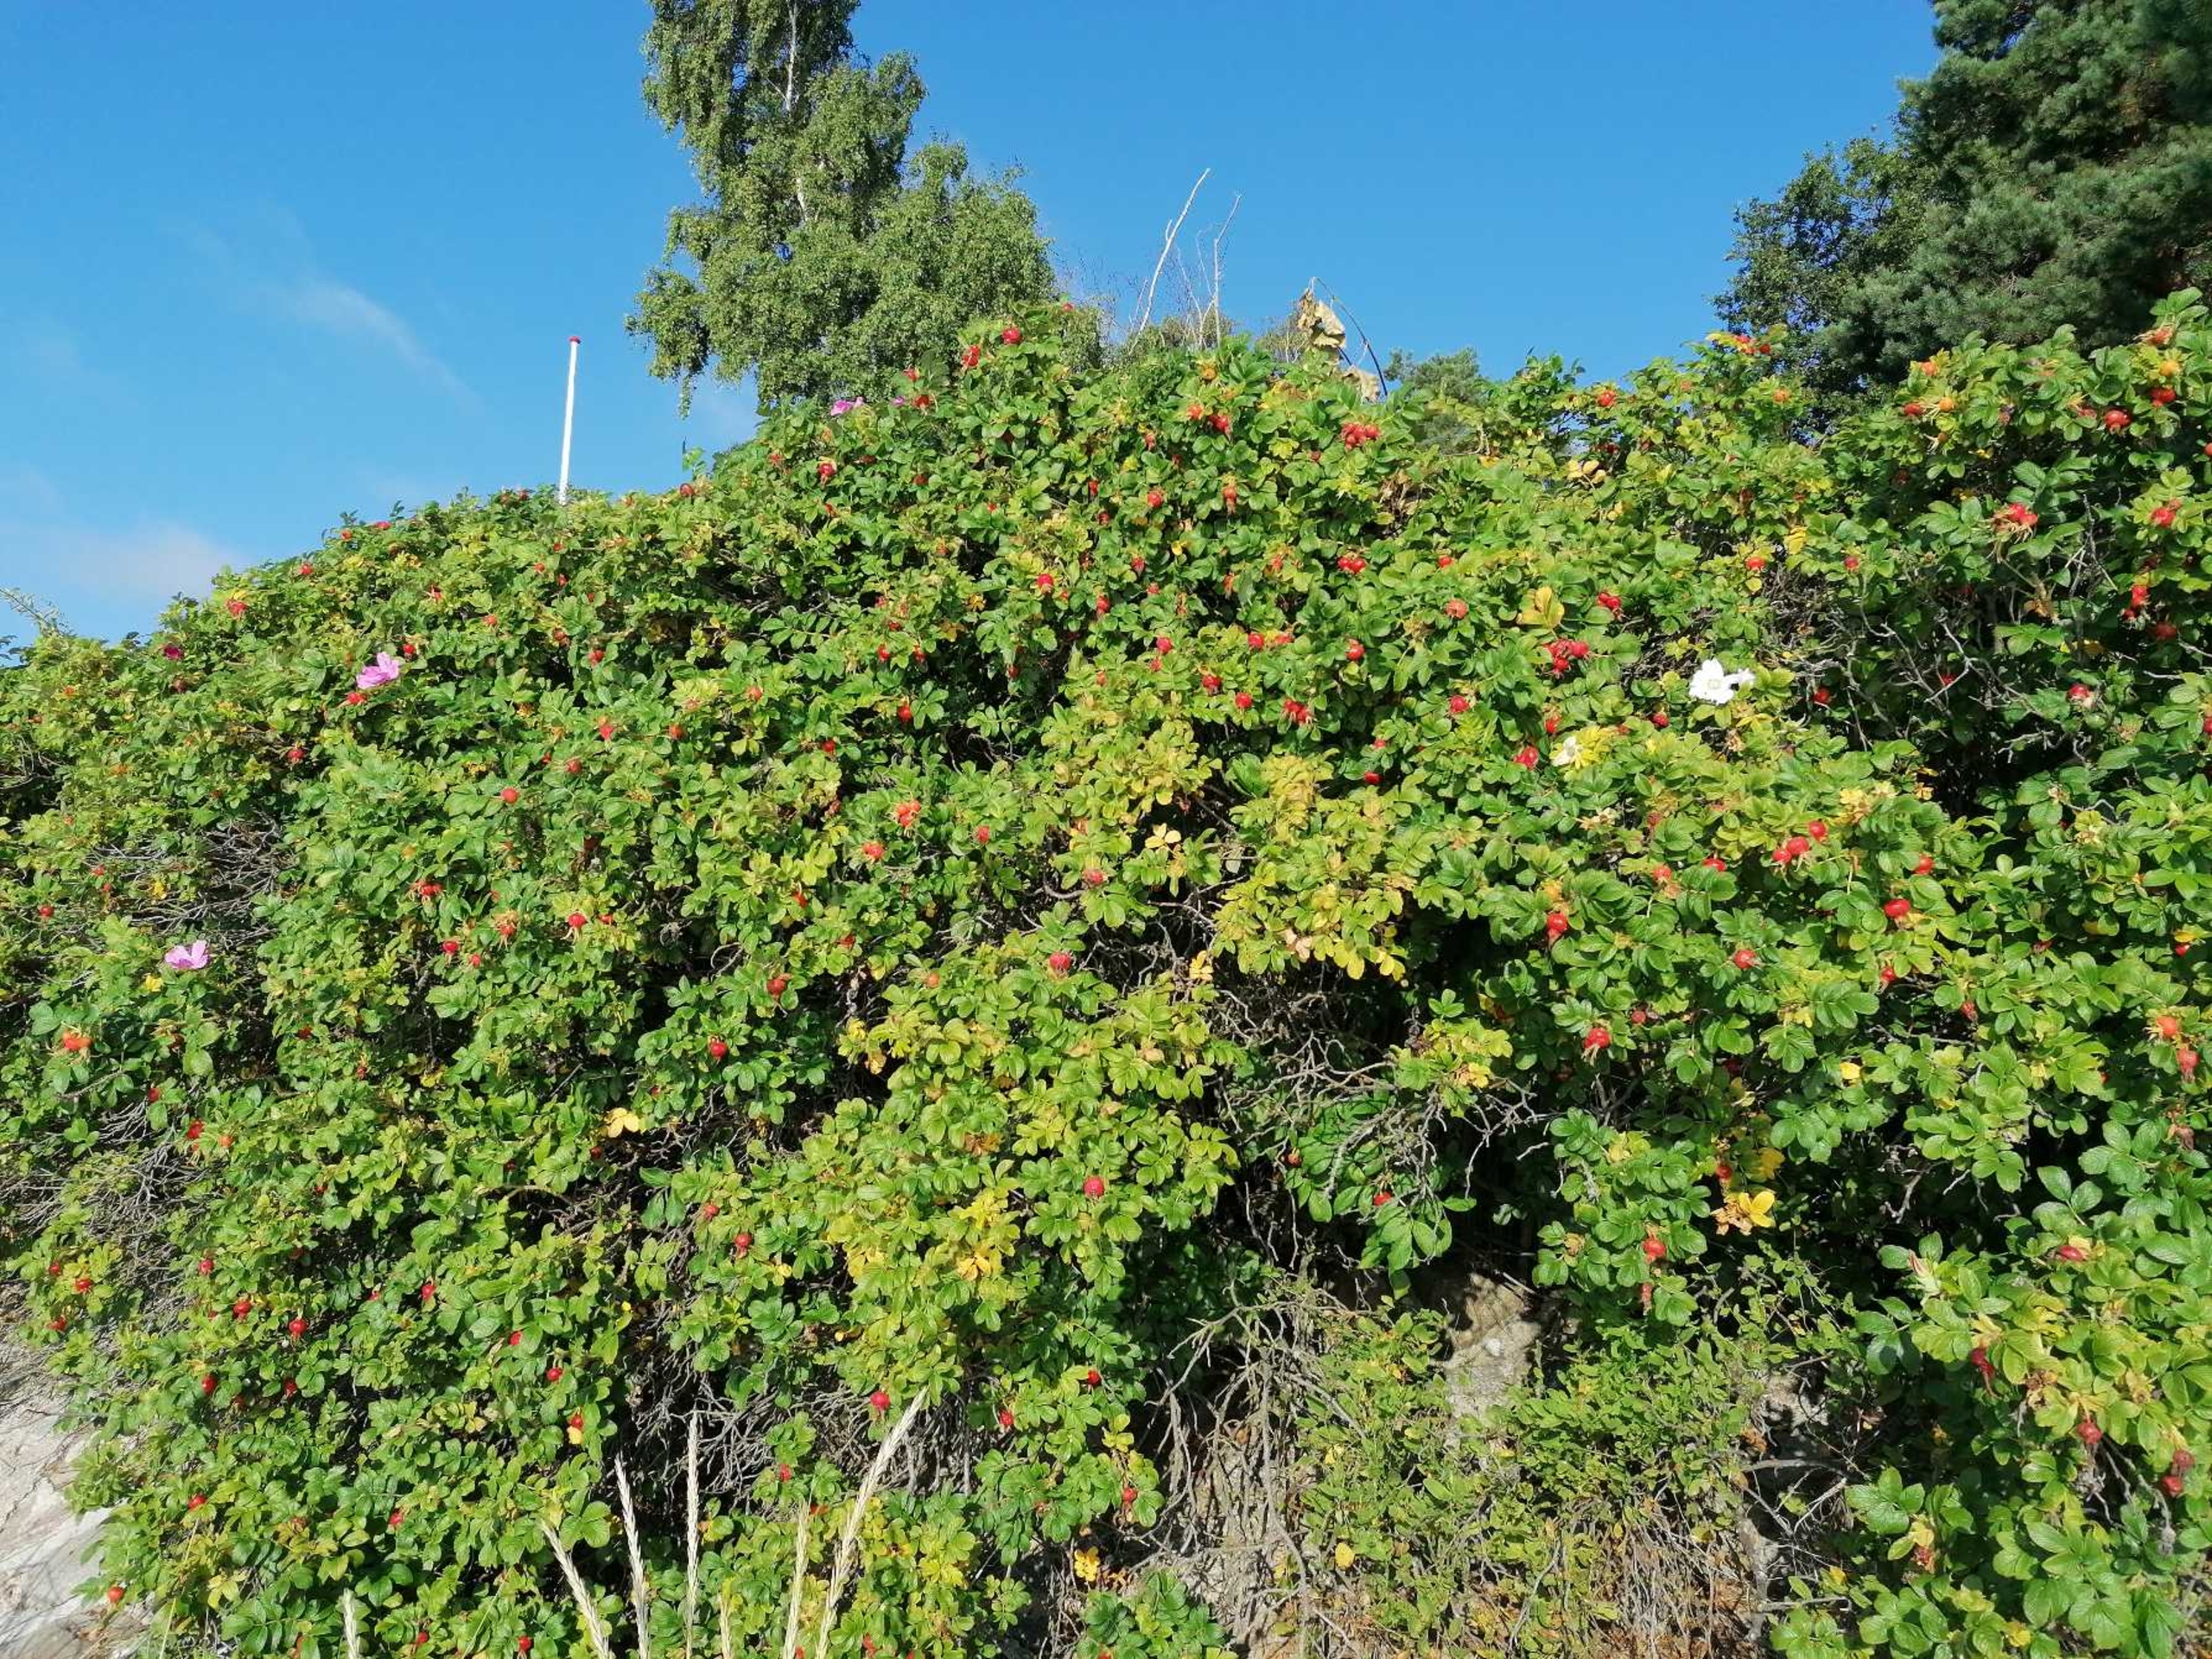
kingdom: Plantae
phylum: Tracheophyta
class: Magnoliopsida
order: Rosales
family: Rosaceae
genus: Rosa
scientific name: Rosa rugosa
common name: Rynket rose
